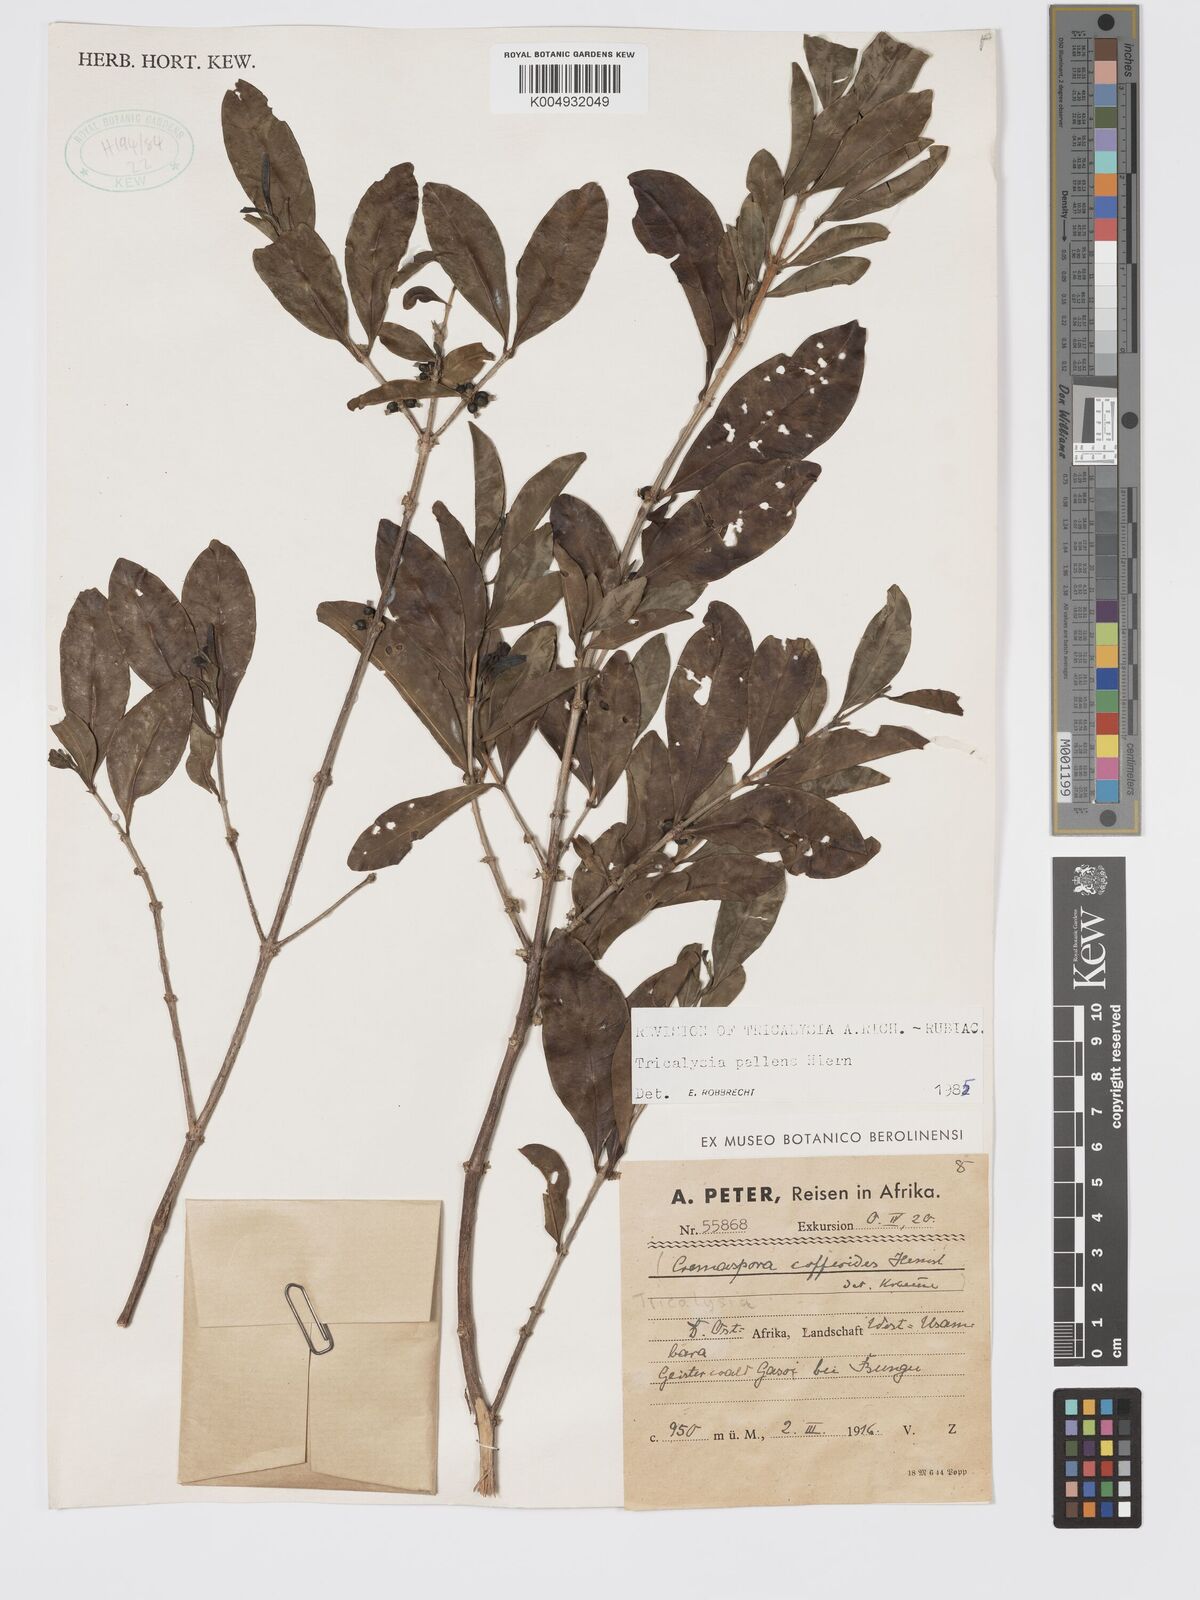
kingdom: Plantae
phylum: Tracheophyta
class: Magnoliopsida
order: Gentianales
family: Rubiaceae
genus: Tricalysia
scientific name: Tricalysia pallens
